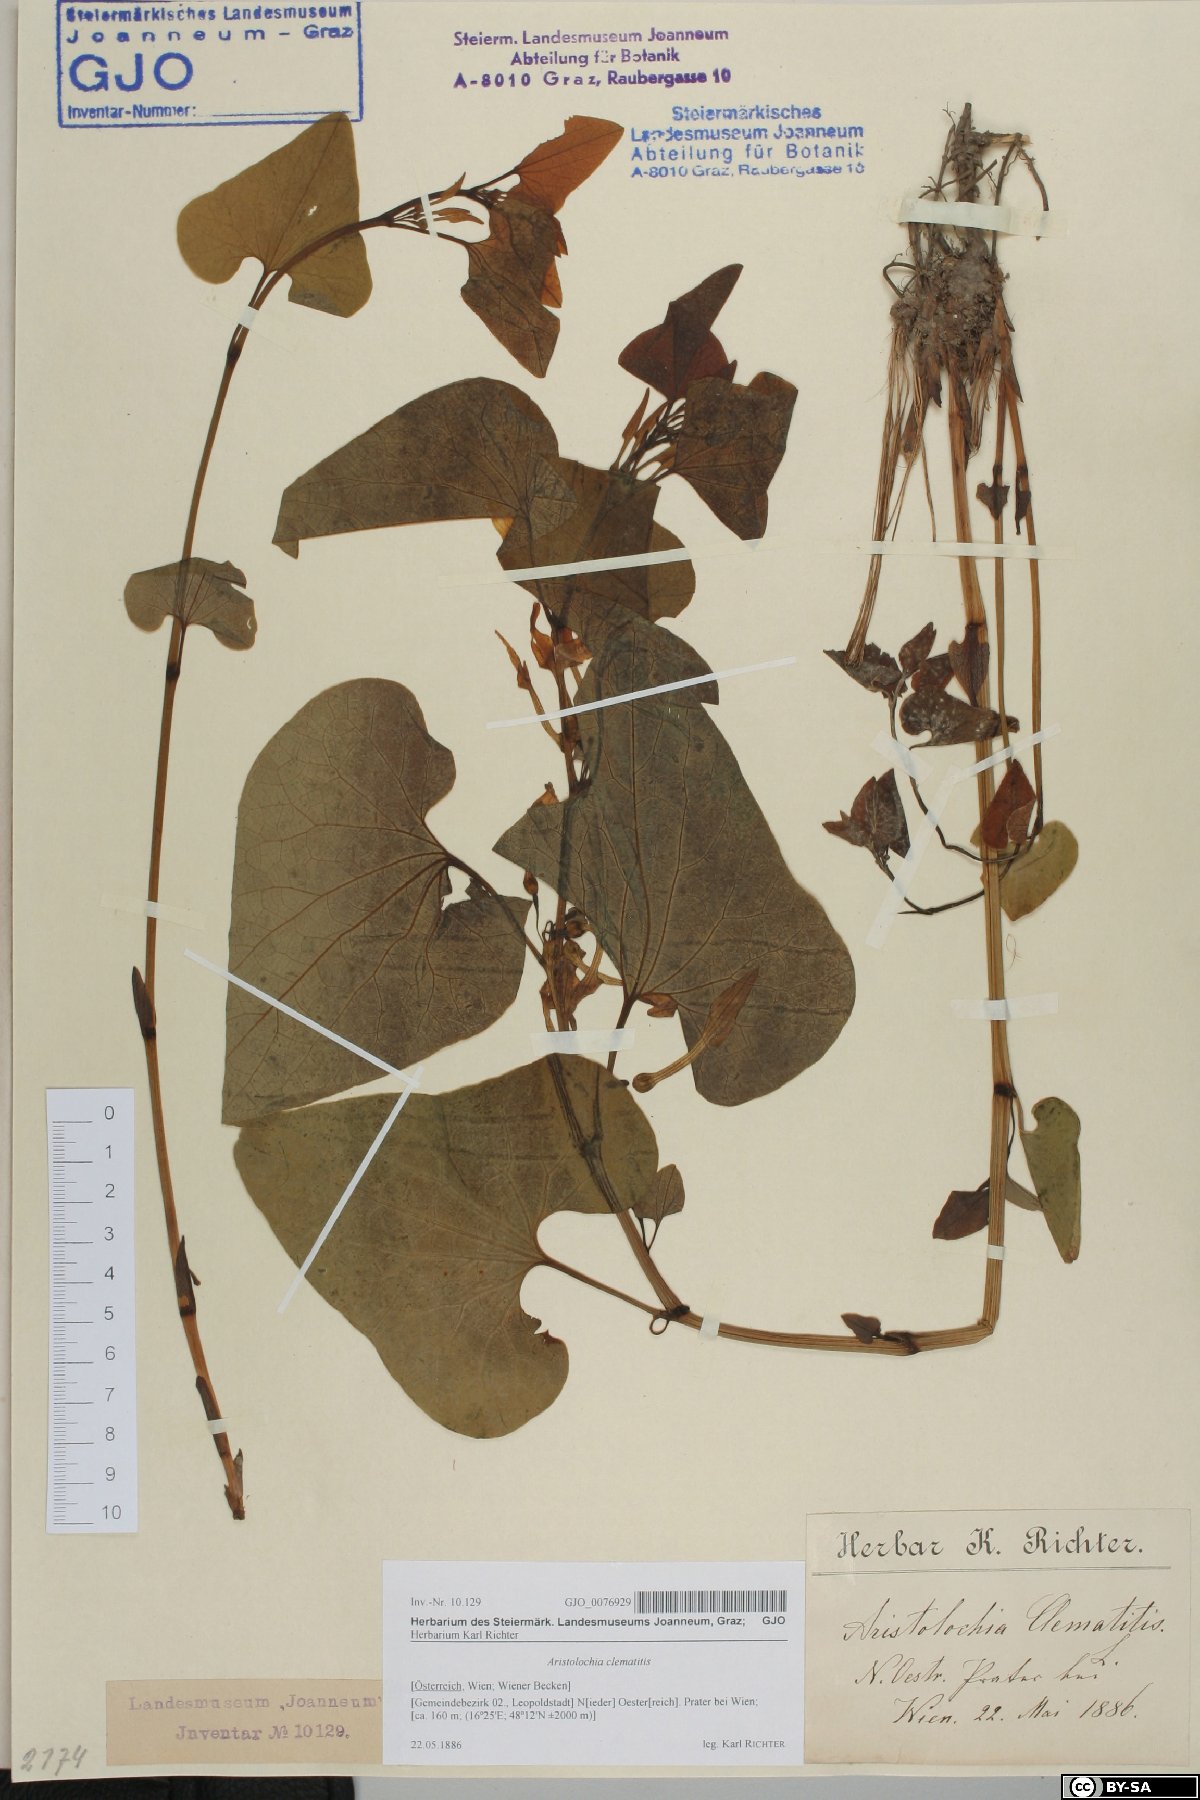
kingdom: Plantae
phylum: Tracheophyta
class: Magnoliopsida
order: Piperales
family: Aristolochiaceae
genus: Aristolochia
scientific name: Aristolochia clematitis
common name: Birthwort
